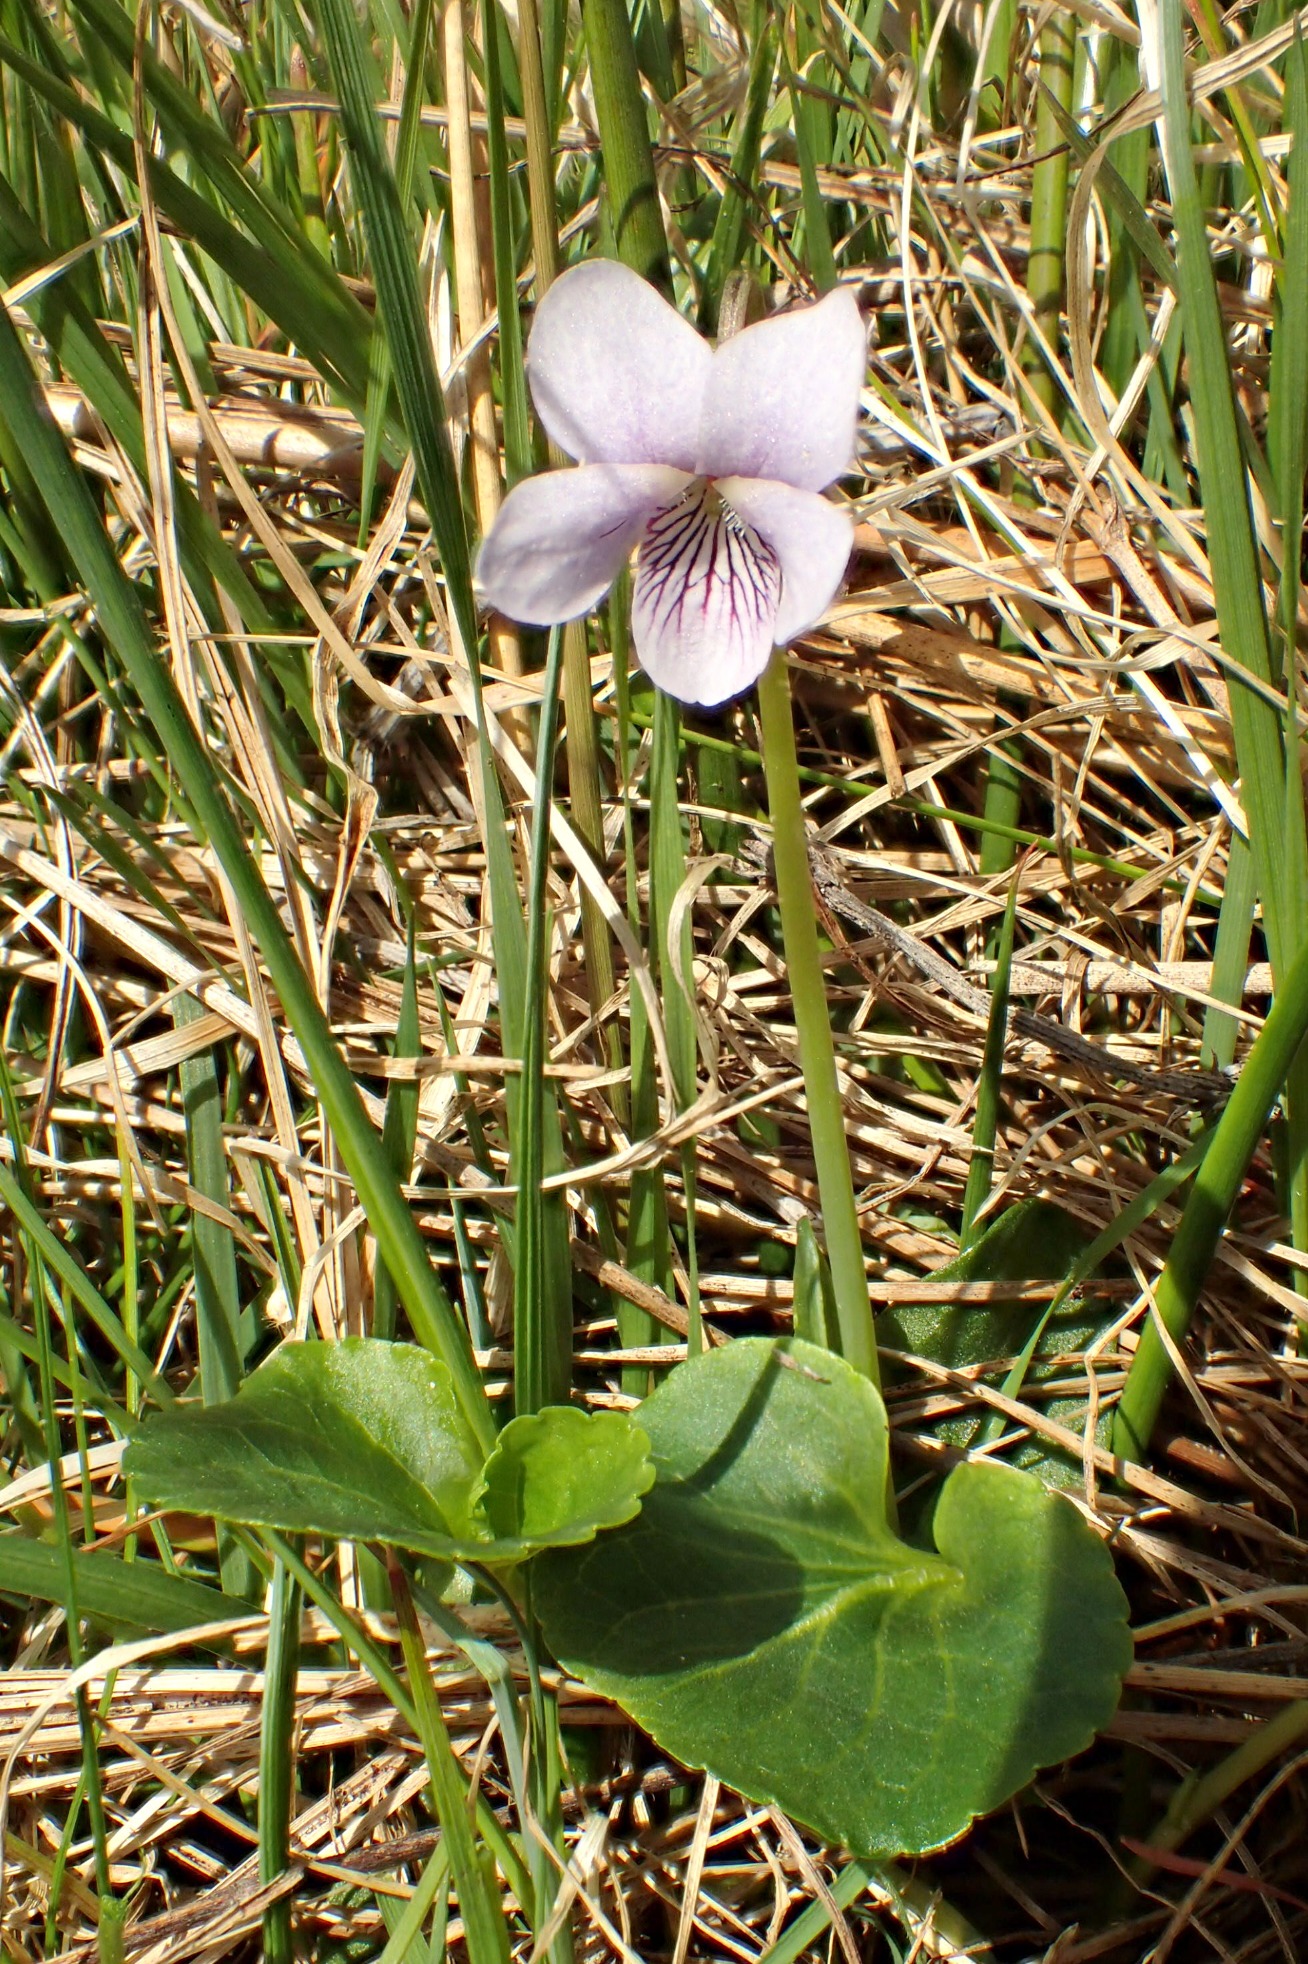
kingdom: Plantae
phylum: Tracheophyta
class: Magnoliopsida
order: Malpighiales
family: Violaceae
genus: Viola
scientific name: Viola palustris
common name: Eng-viol
